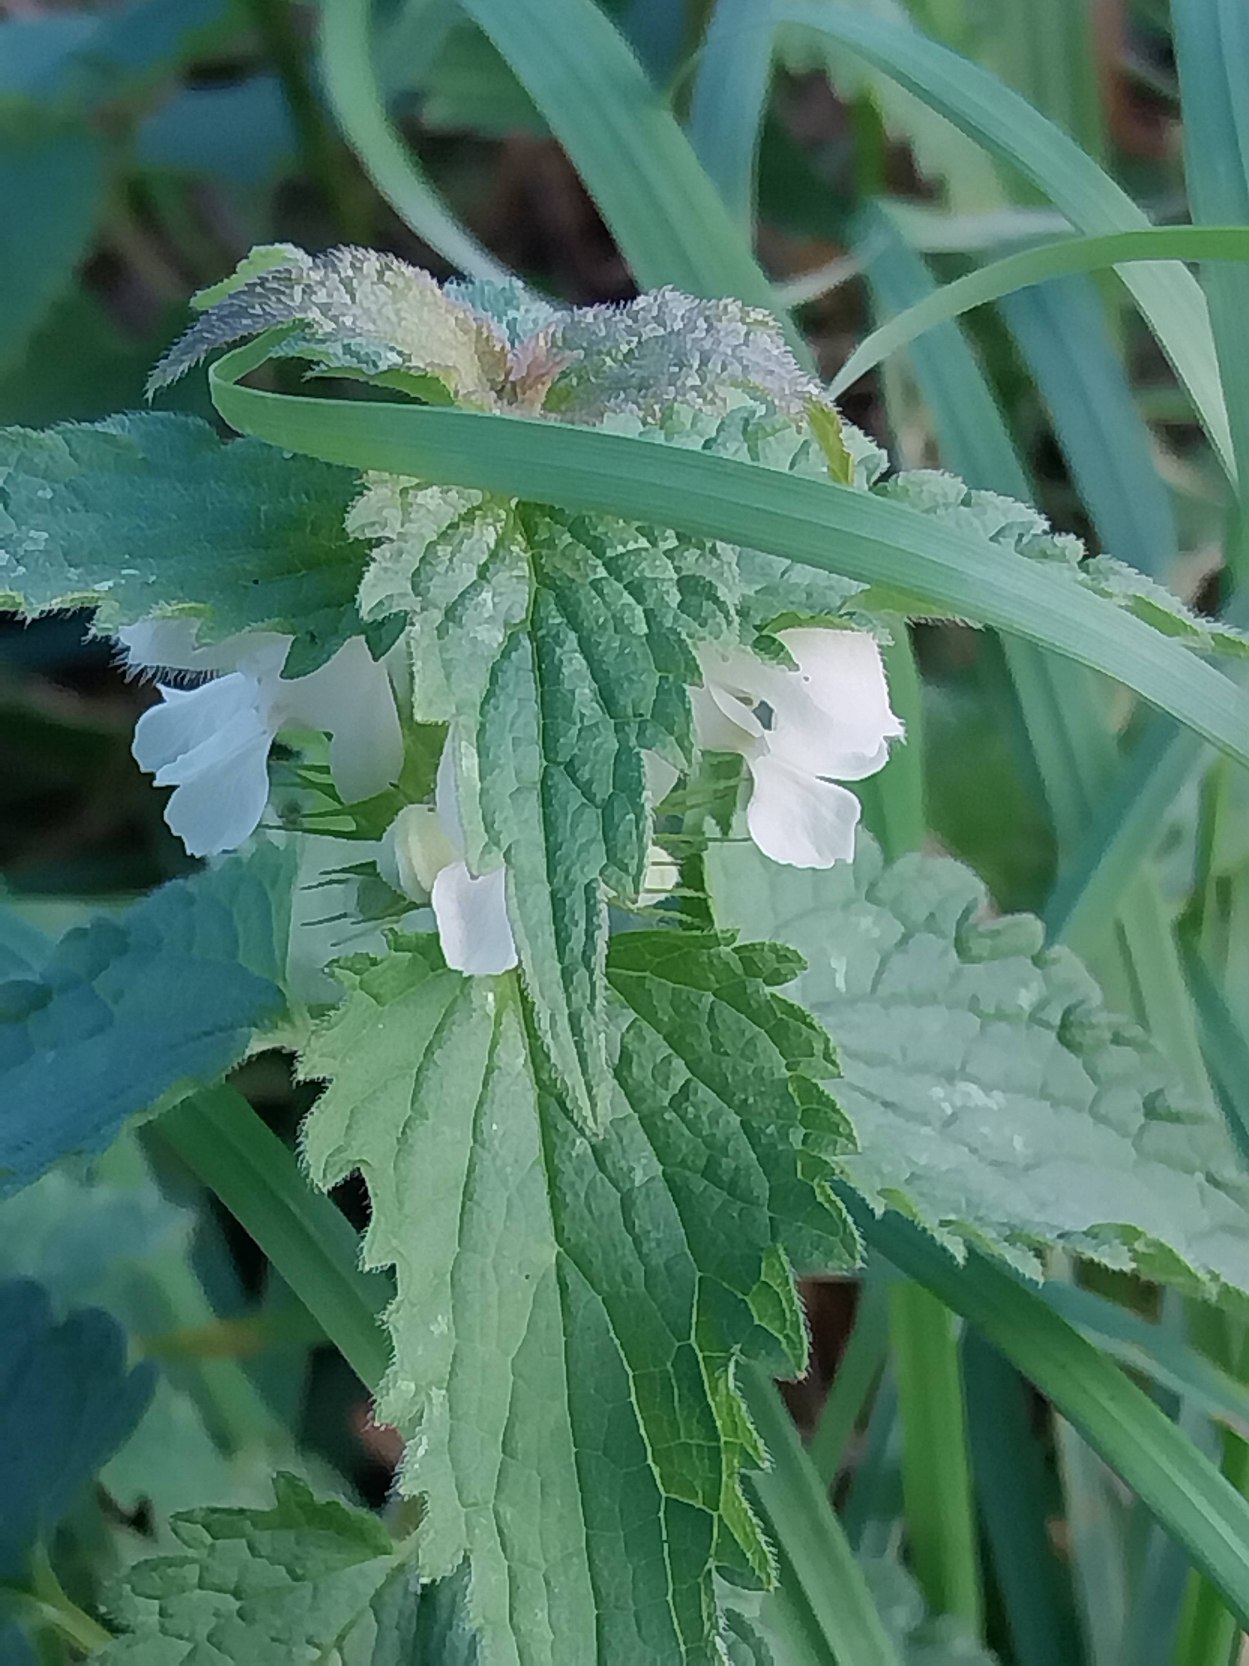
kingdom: Plantae
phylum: Tracheophyta
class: Magnoliopsida
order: Lamiales
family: Lamiaceae
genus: Lamium
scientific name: Lamium album
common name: Døvnælde
